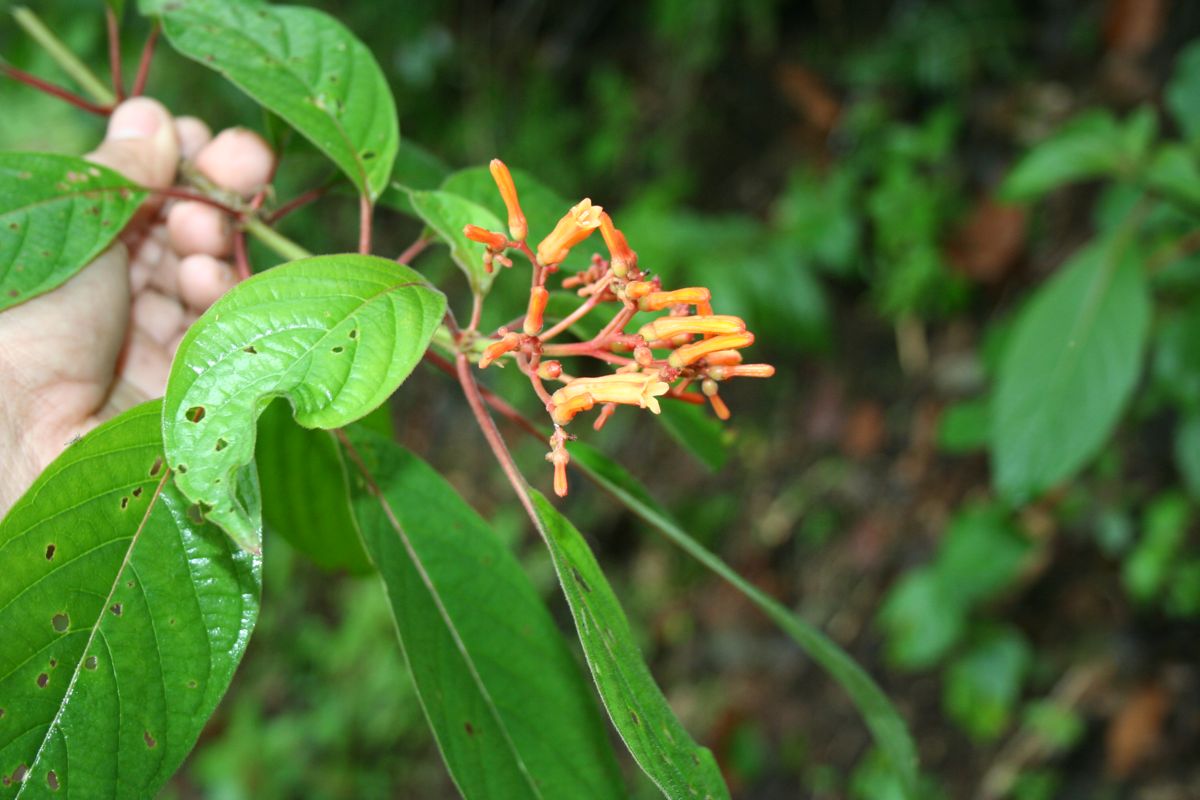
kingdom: Plantae
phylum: Tracheophyta
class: Magnoliopsida
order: Gentianales
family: Rubiaceae
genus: Hamelia
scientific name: Hamelia patens
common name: Redhead
